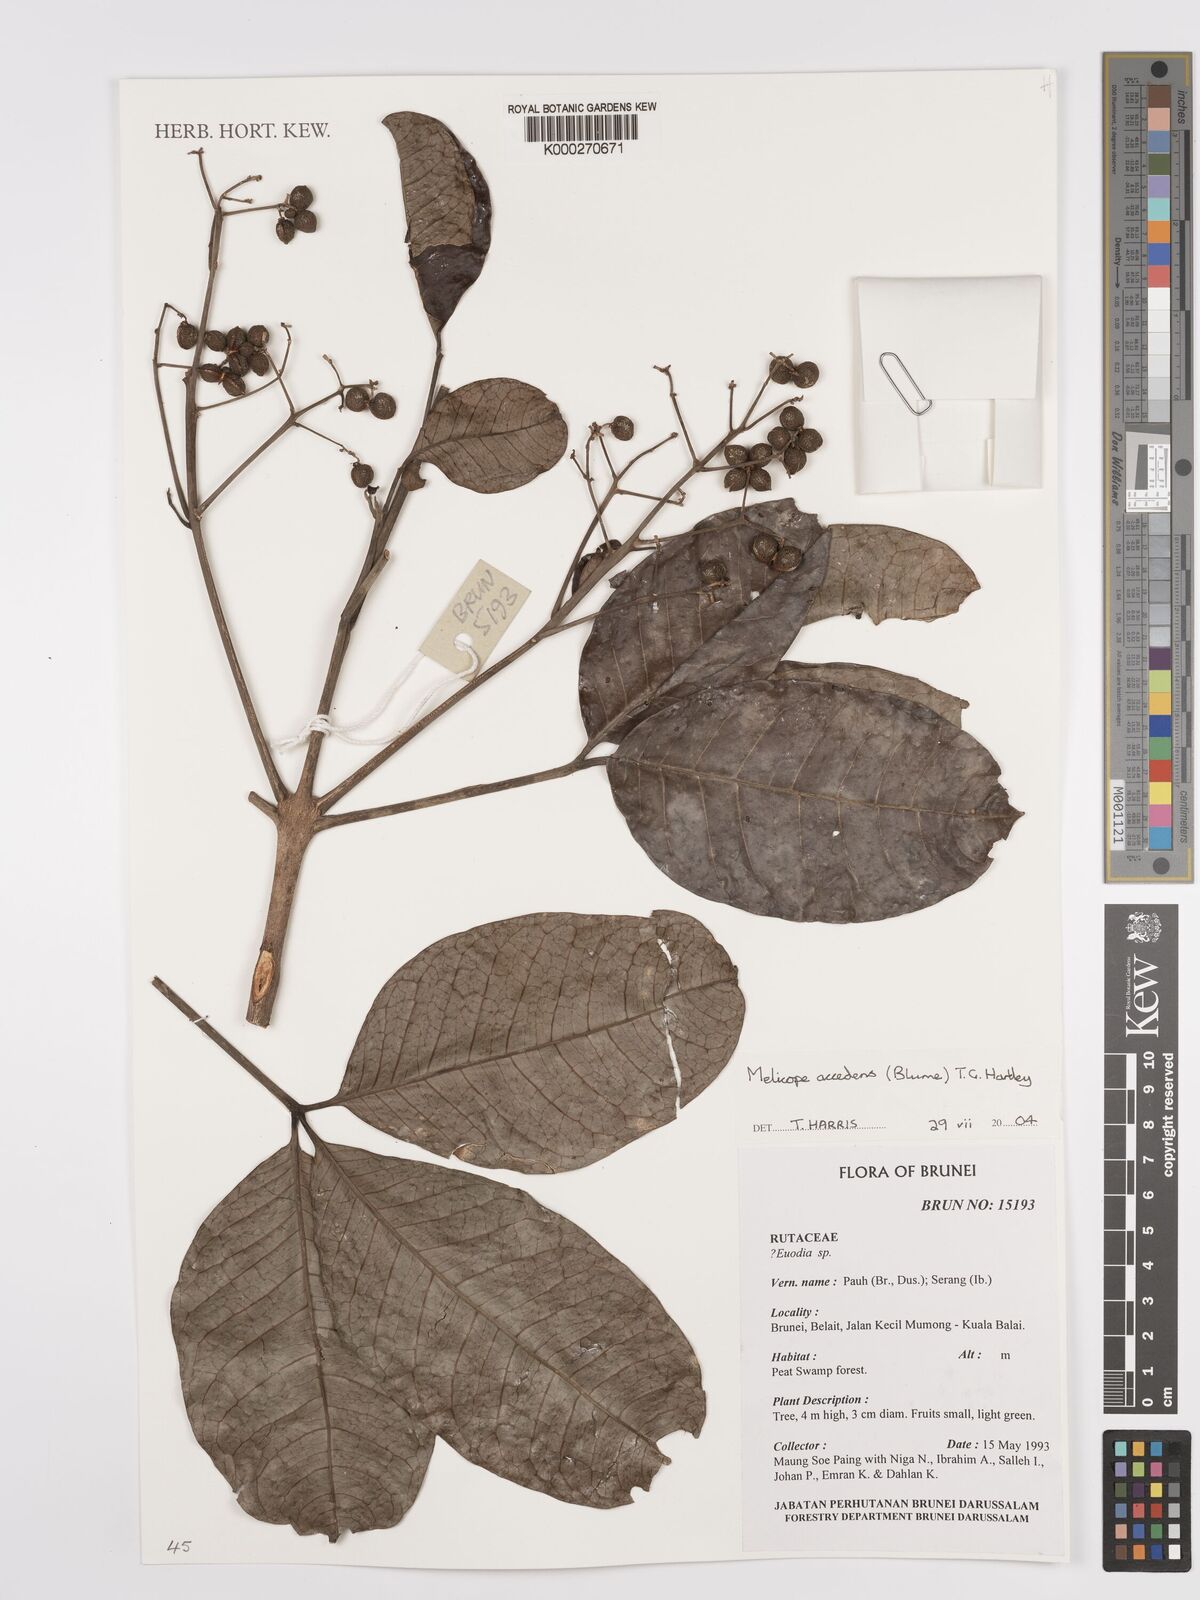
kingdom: Plantae
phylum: Tracheophyta
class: Magnoliopsida
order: Sapindales
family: Rutaceae
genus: Melicope
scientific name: Melicope accedens
